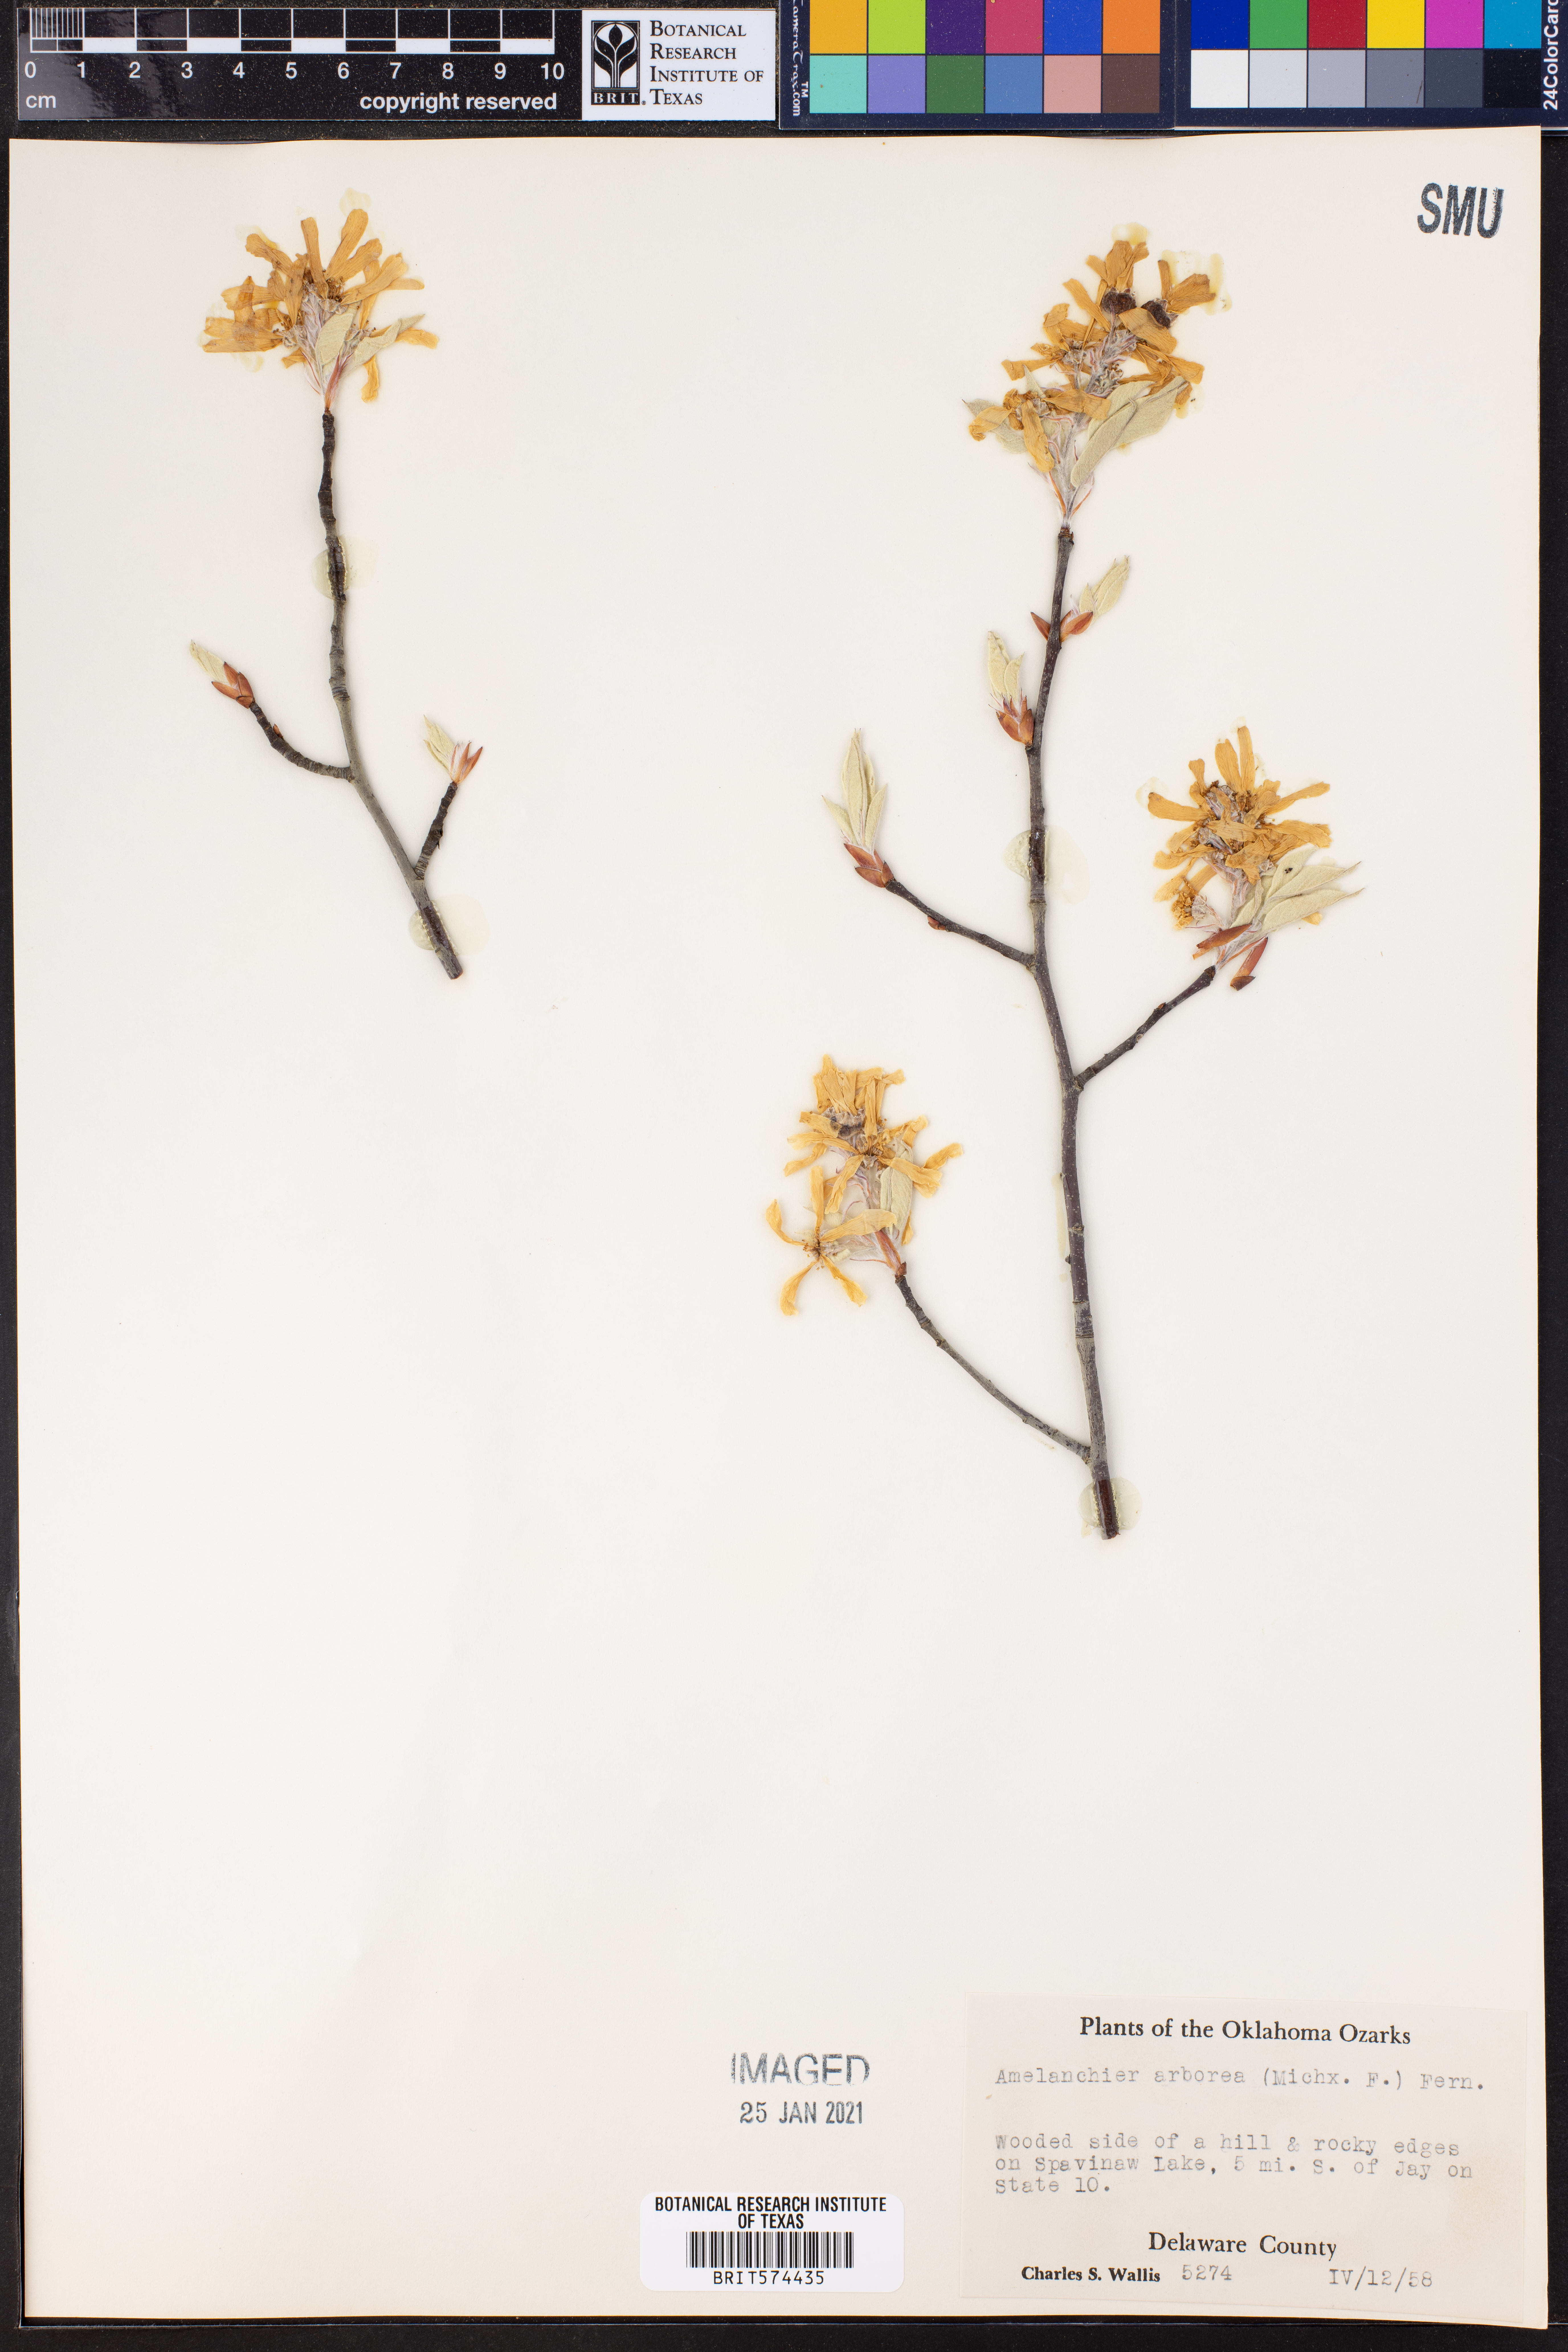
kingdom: Plantae
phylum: Tracheophyta
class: Magnoliopsida
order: Rosales
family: Rosaceae
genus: Amelanchier
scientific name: Amelanchier arborea
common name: Downy serviceberry
